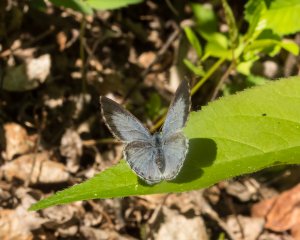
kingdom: Animalia
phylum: Arthropoda
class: Insecta
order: Lepidoptera
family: Lycaenidae
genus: Celastrina
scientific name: Celastrina lucia
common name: Northern Spring Azure
